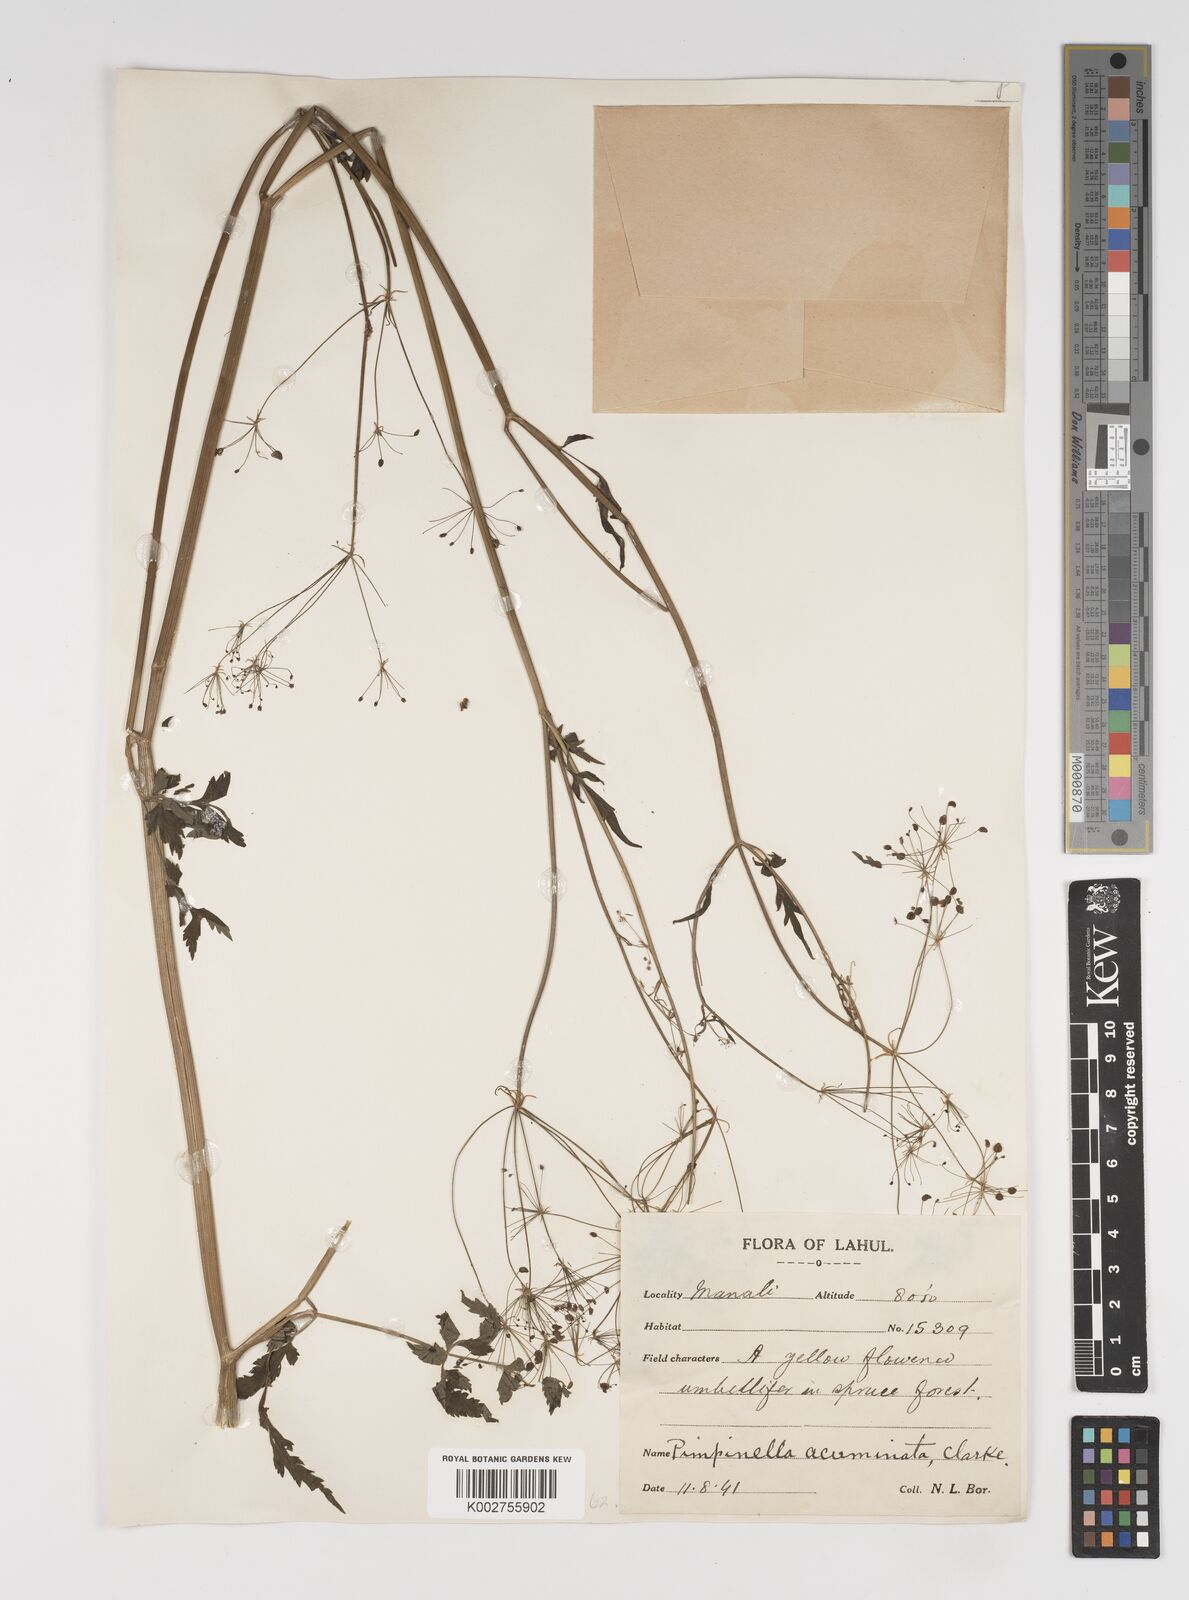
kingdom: Plantae
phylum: Tracheophyta
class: Magnoliopsida
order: Apiales
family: Apiaceae
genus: Pimpinella
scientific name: Pimpinella acuminata
